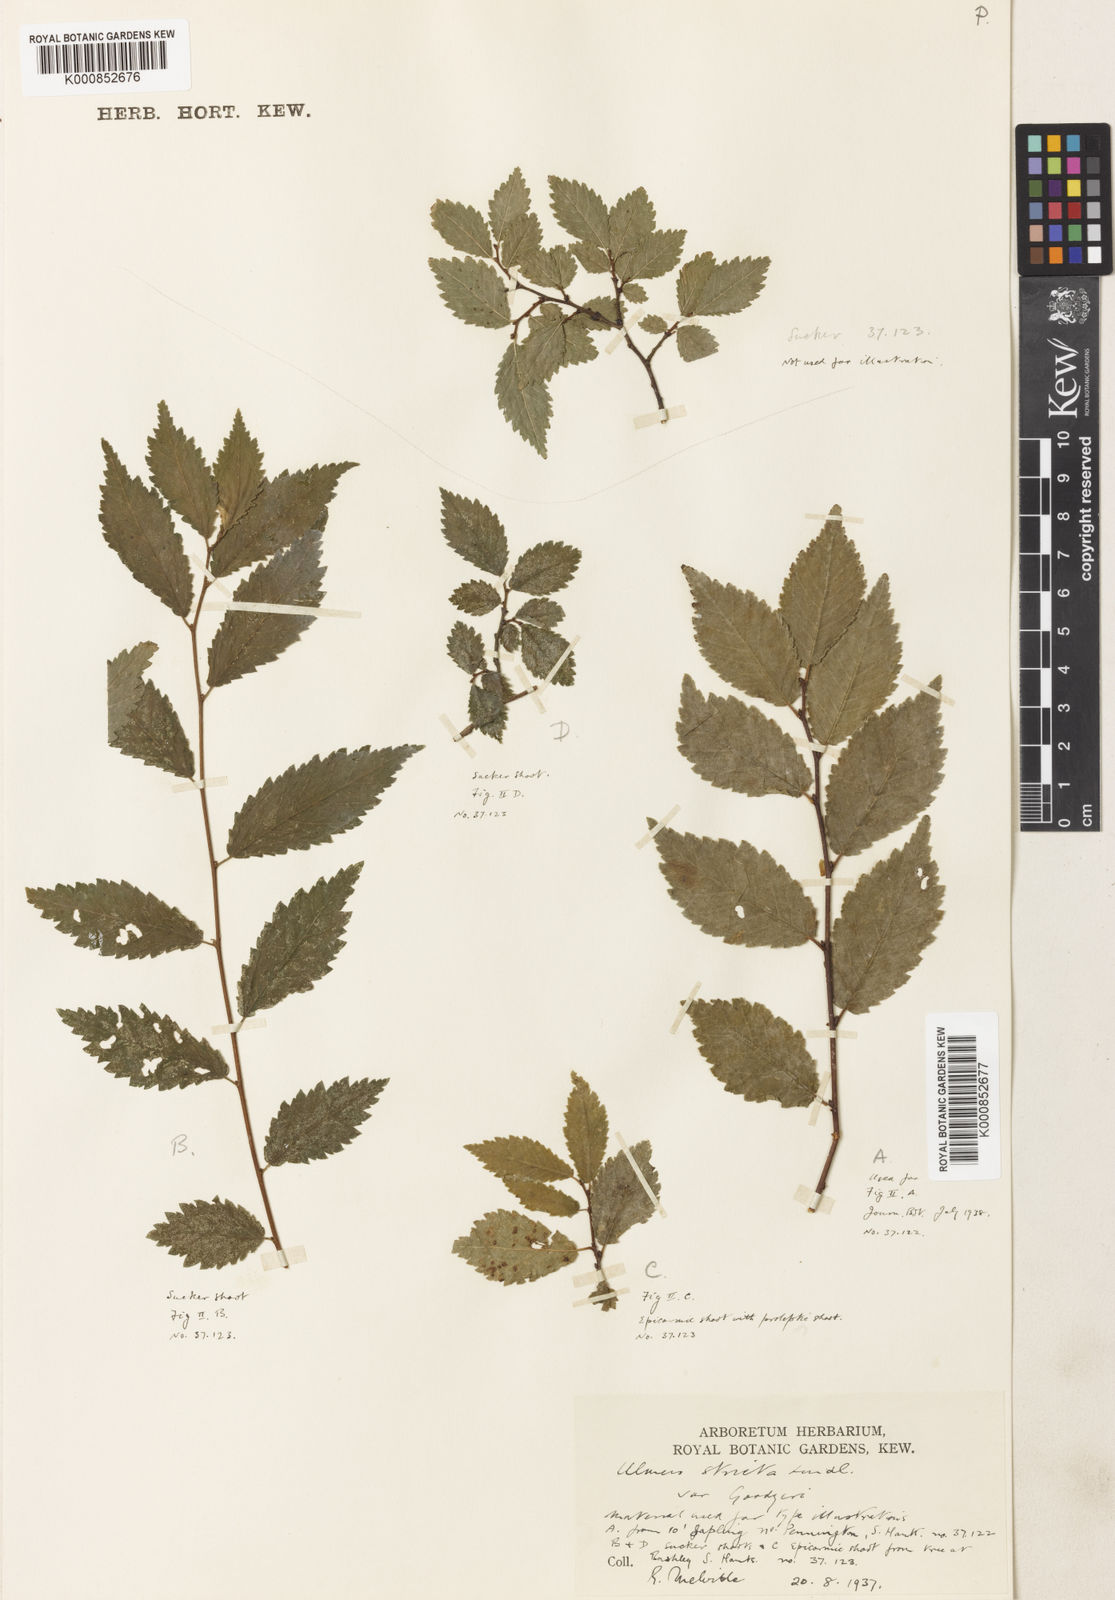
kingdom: Plantae
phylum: Tracheophyta
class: Magnoliopsida
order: Rosales
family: Ulmaceae
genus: Ulmus
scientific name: Ulmus
